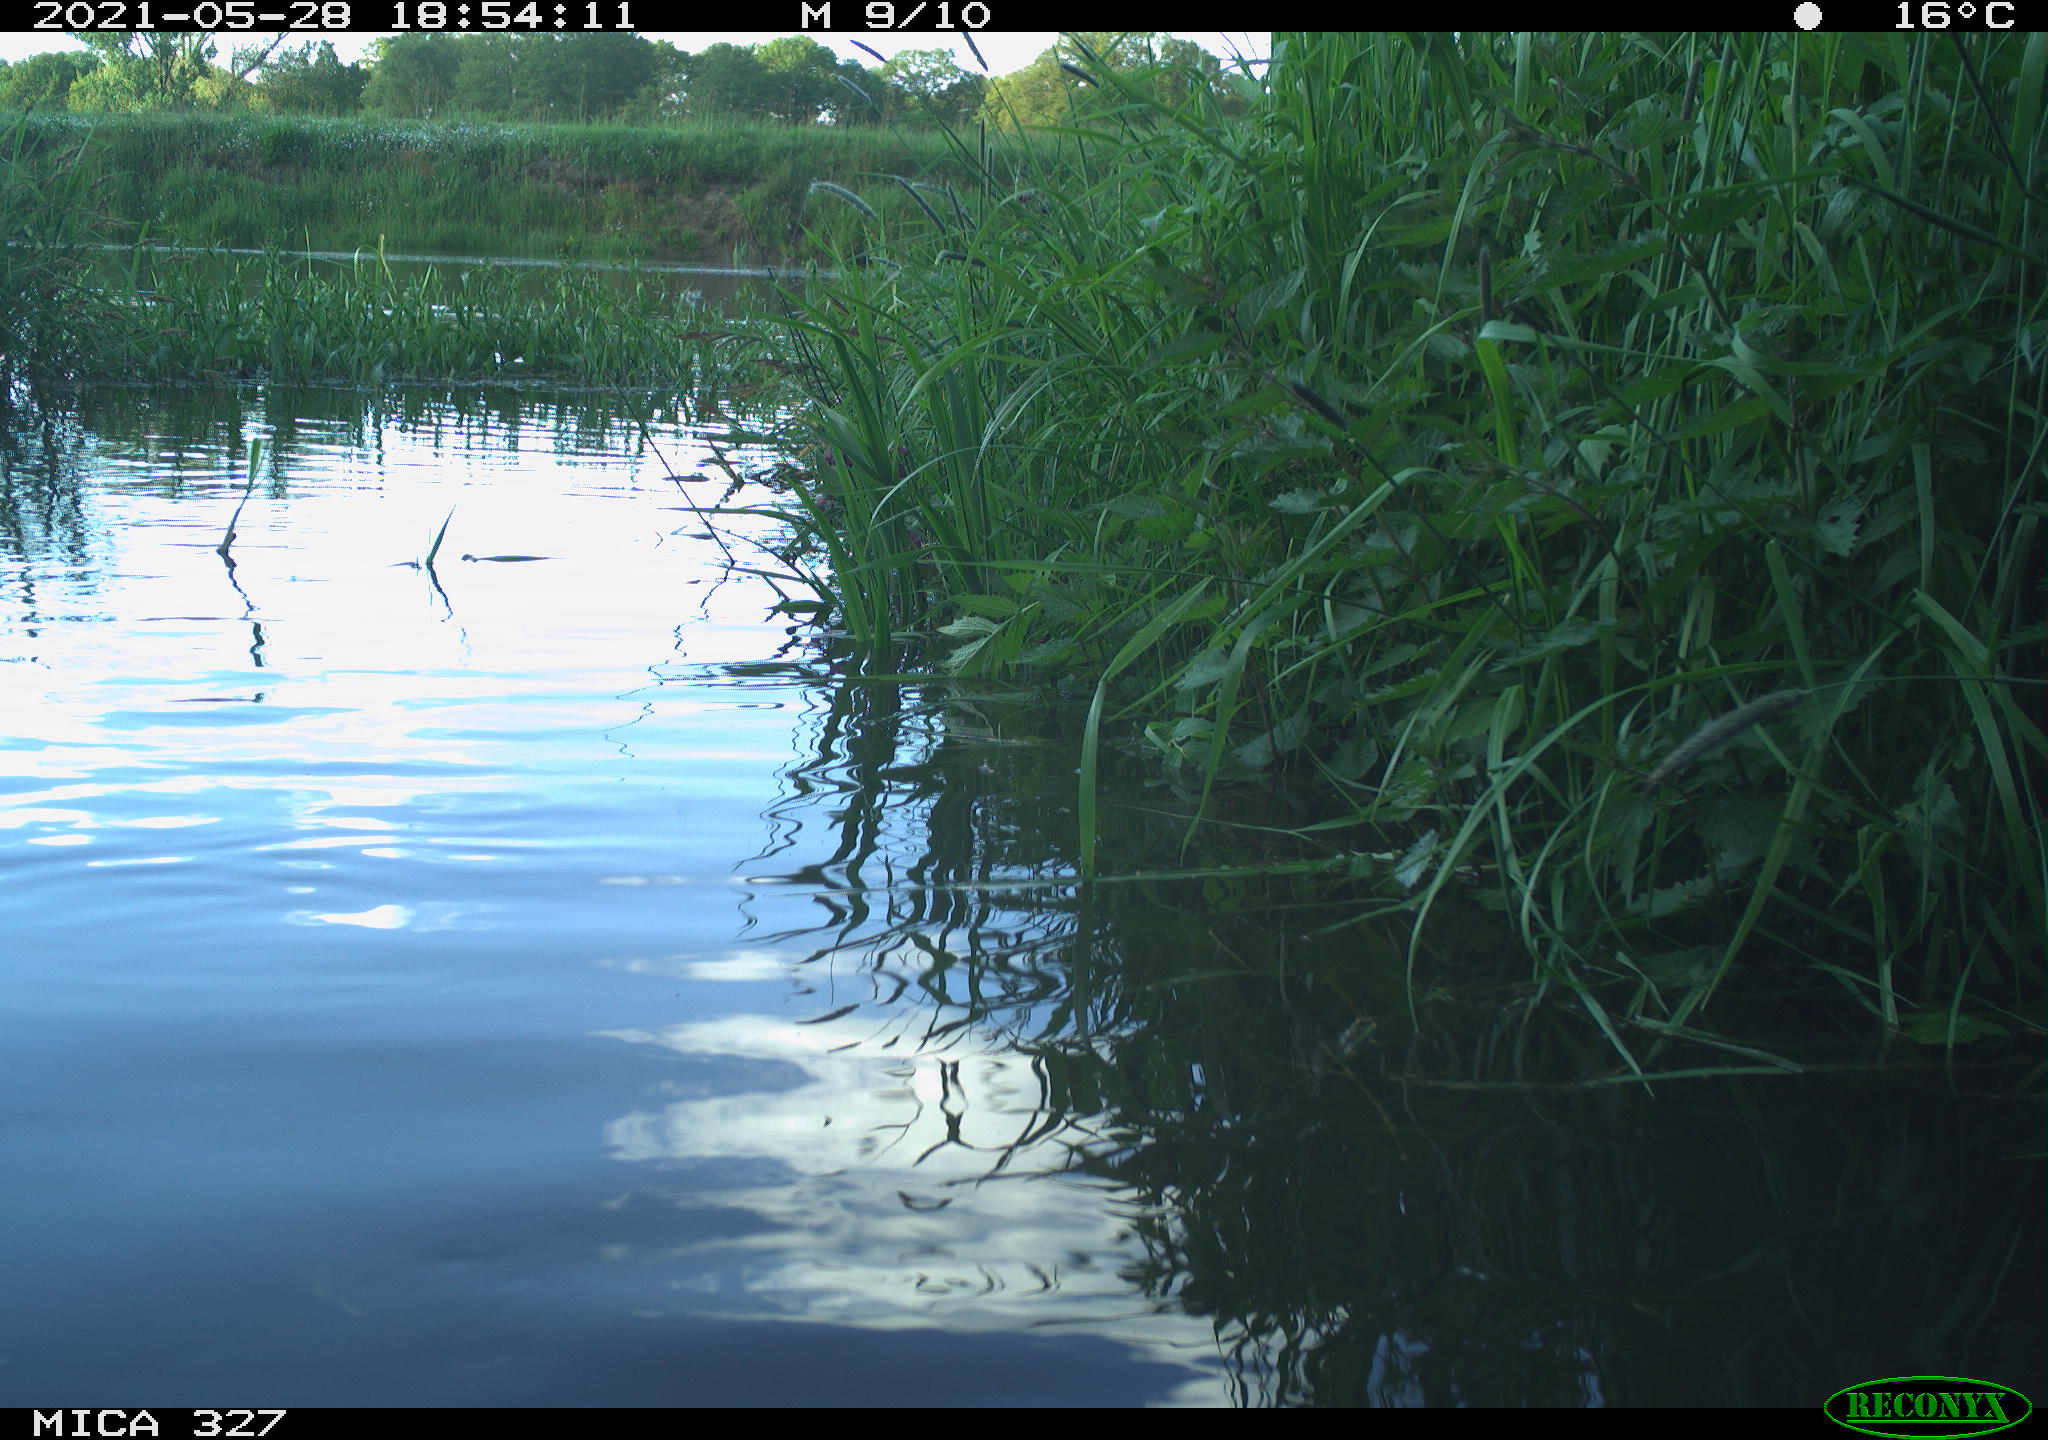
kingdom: Animalia
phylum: Chordata
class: Mammalia
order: Rodentia
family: Cricetidae
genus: Ondatra
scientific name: Ondatra zibethicus
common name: Muskrat
